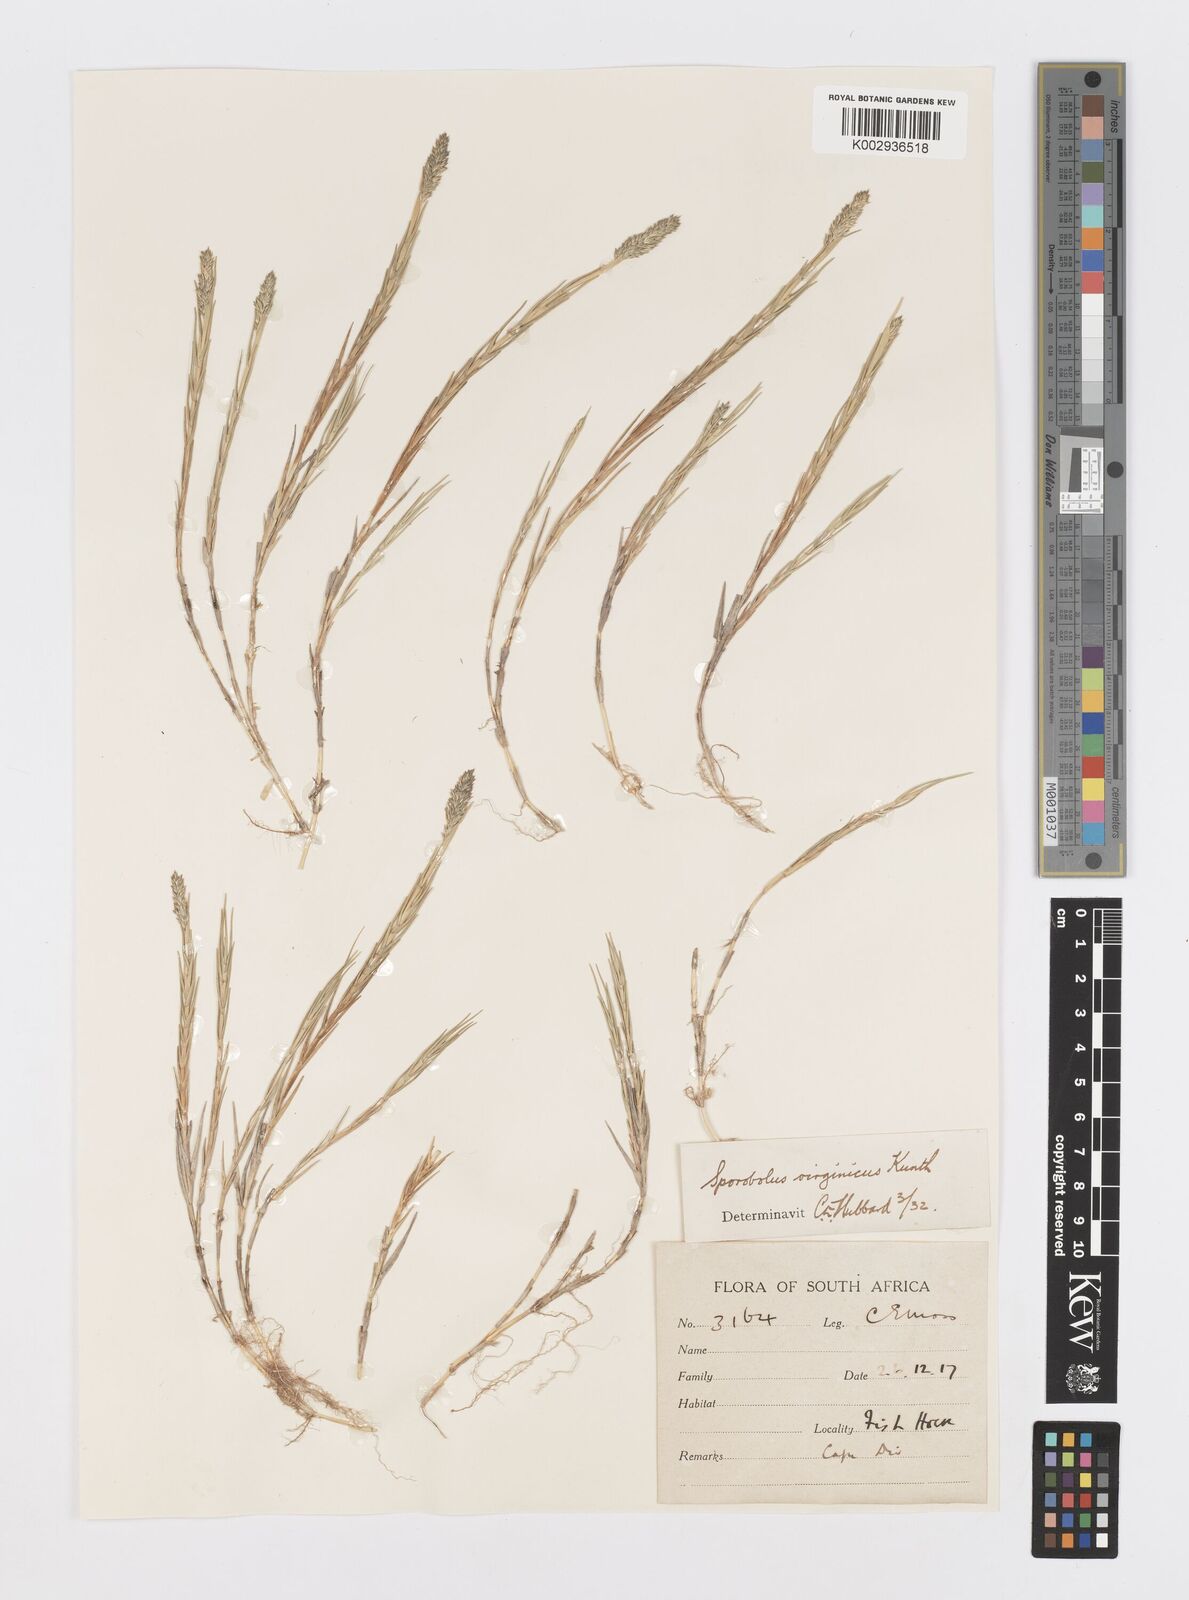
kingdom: Plantae
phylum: Tracheophyta
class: Liliopsida
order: Poales
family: Poaceae
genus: Sporobolus
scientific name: Sporobolus virginicus
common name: Beach dropseed
